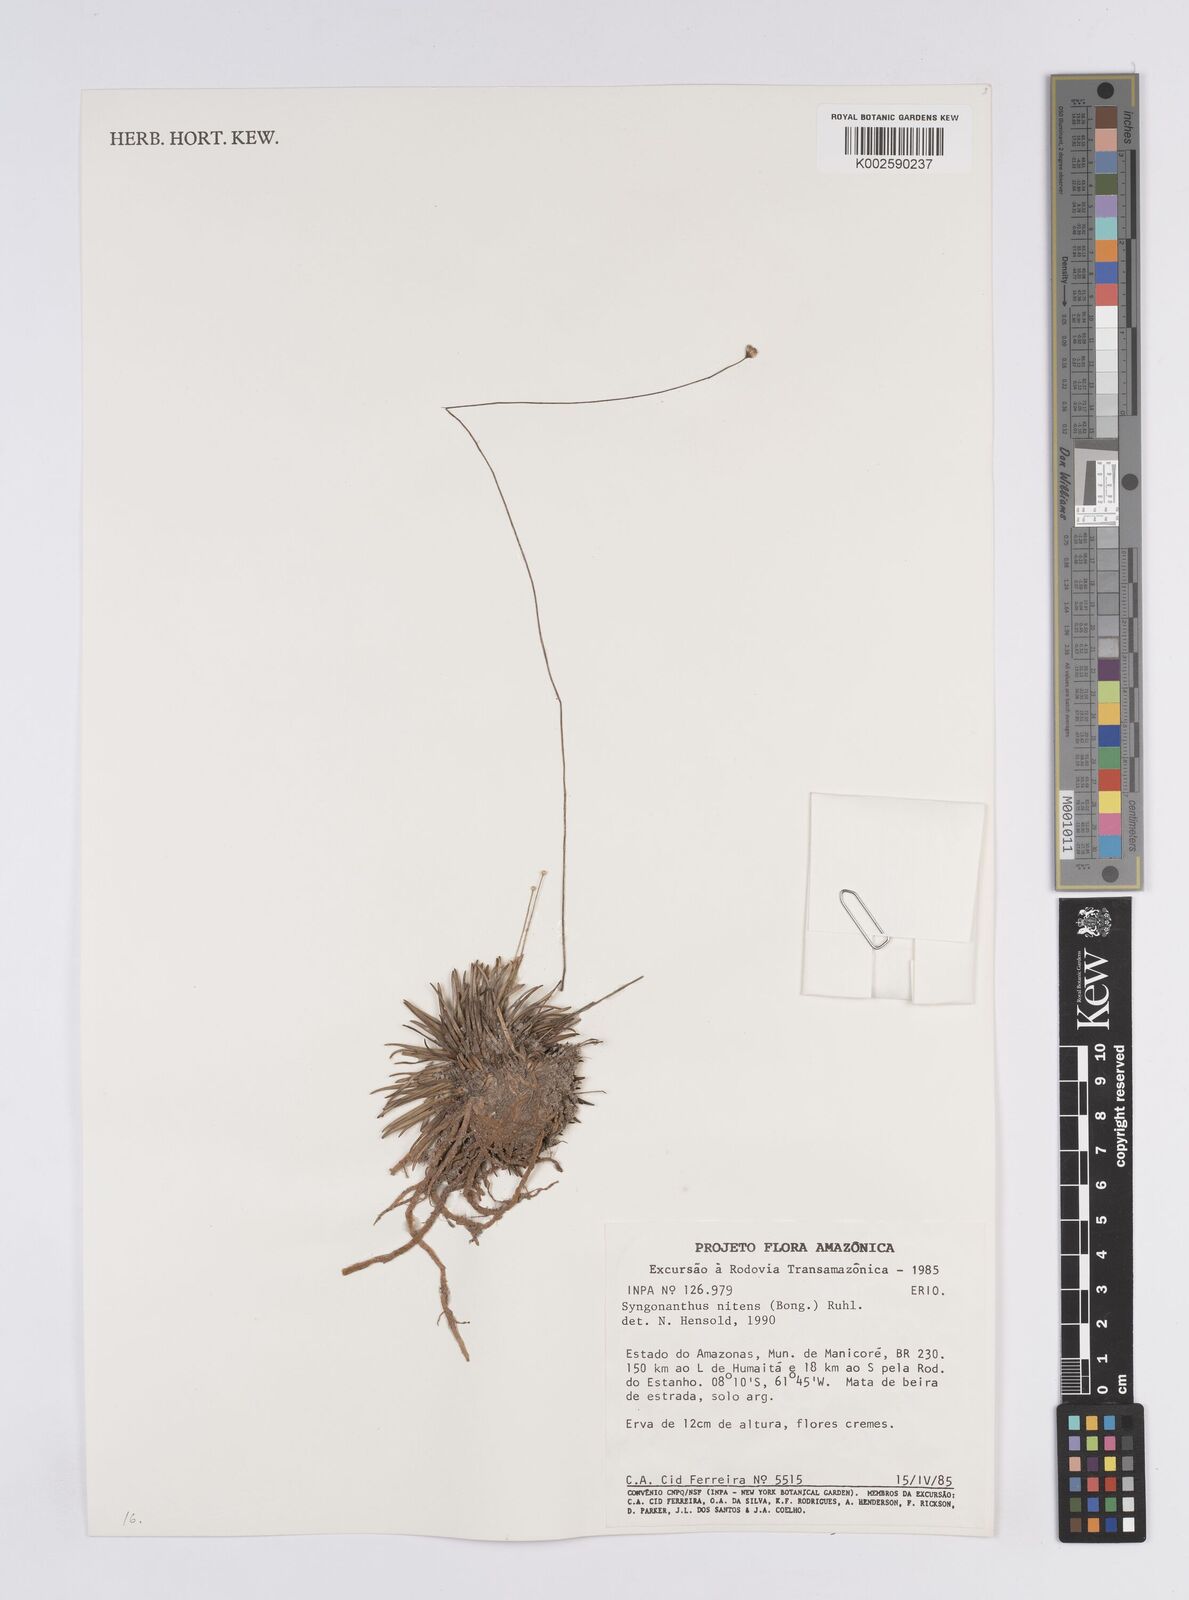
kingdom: Plantae
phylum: Tracheophyta
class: Liliopsida
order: Poales
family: Eriocaulaceae
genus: Syngonanthus
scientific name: Syngonanthus nitens
